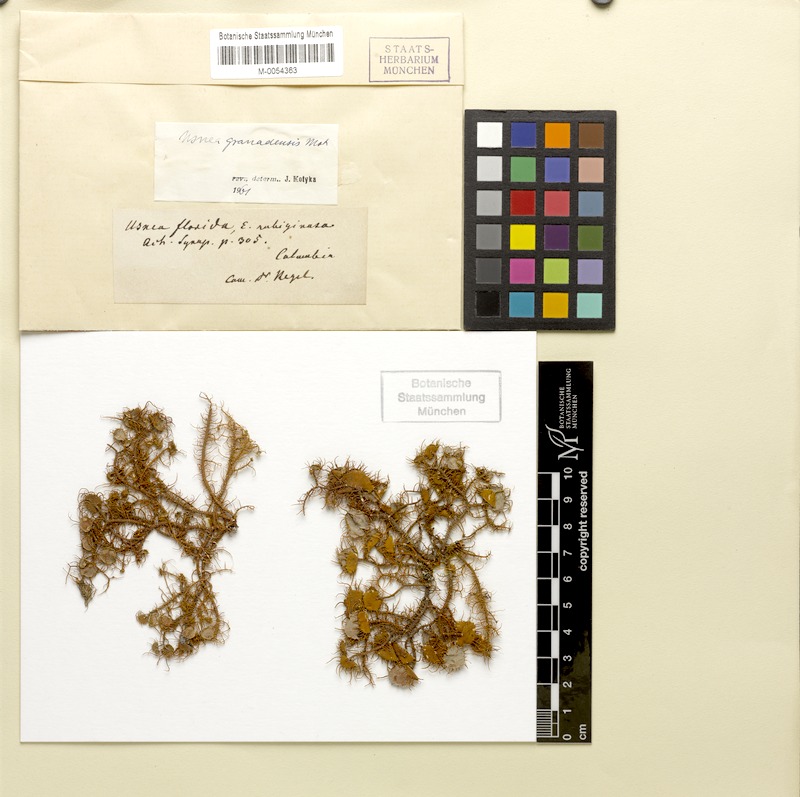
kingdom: Fungi
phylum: Ascomycota
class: Lecanoromycetes
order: Lecanorales
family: Parmeliaceae
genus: Usnea
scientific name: Usnea granadensis
